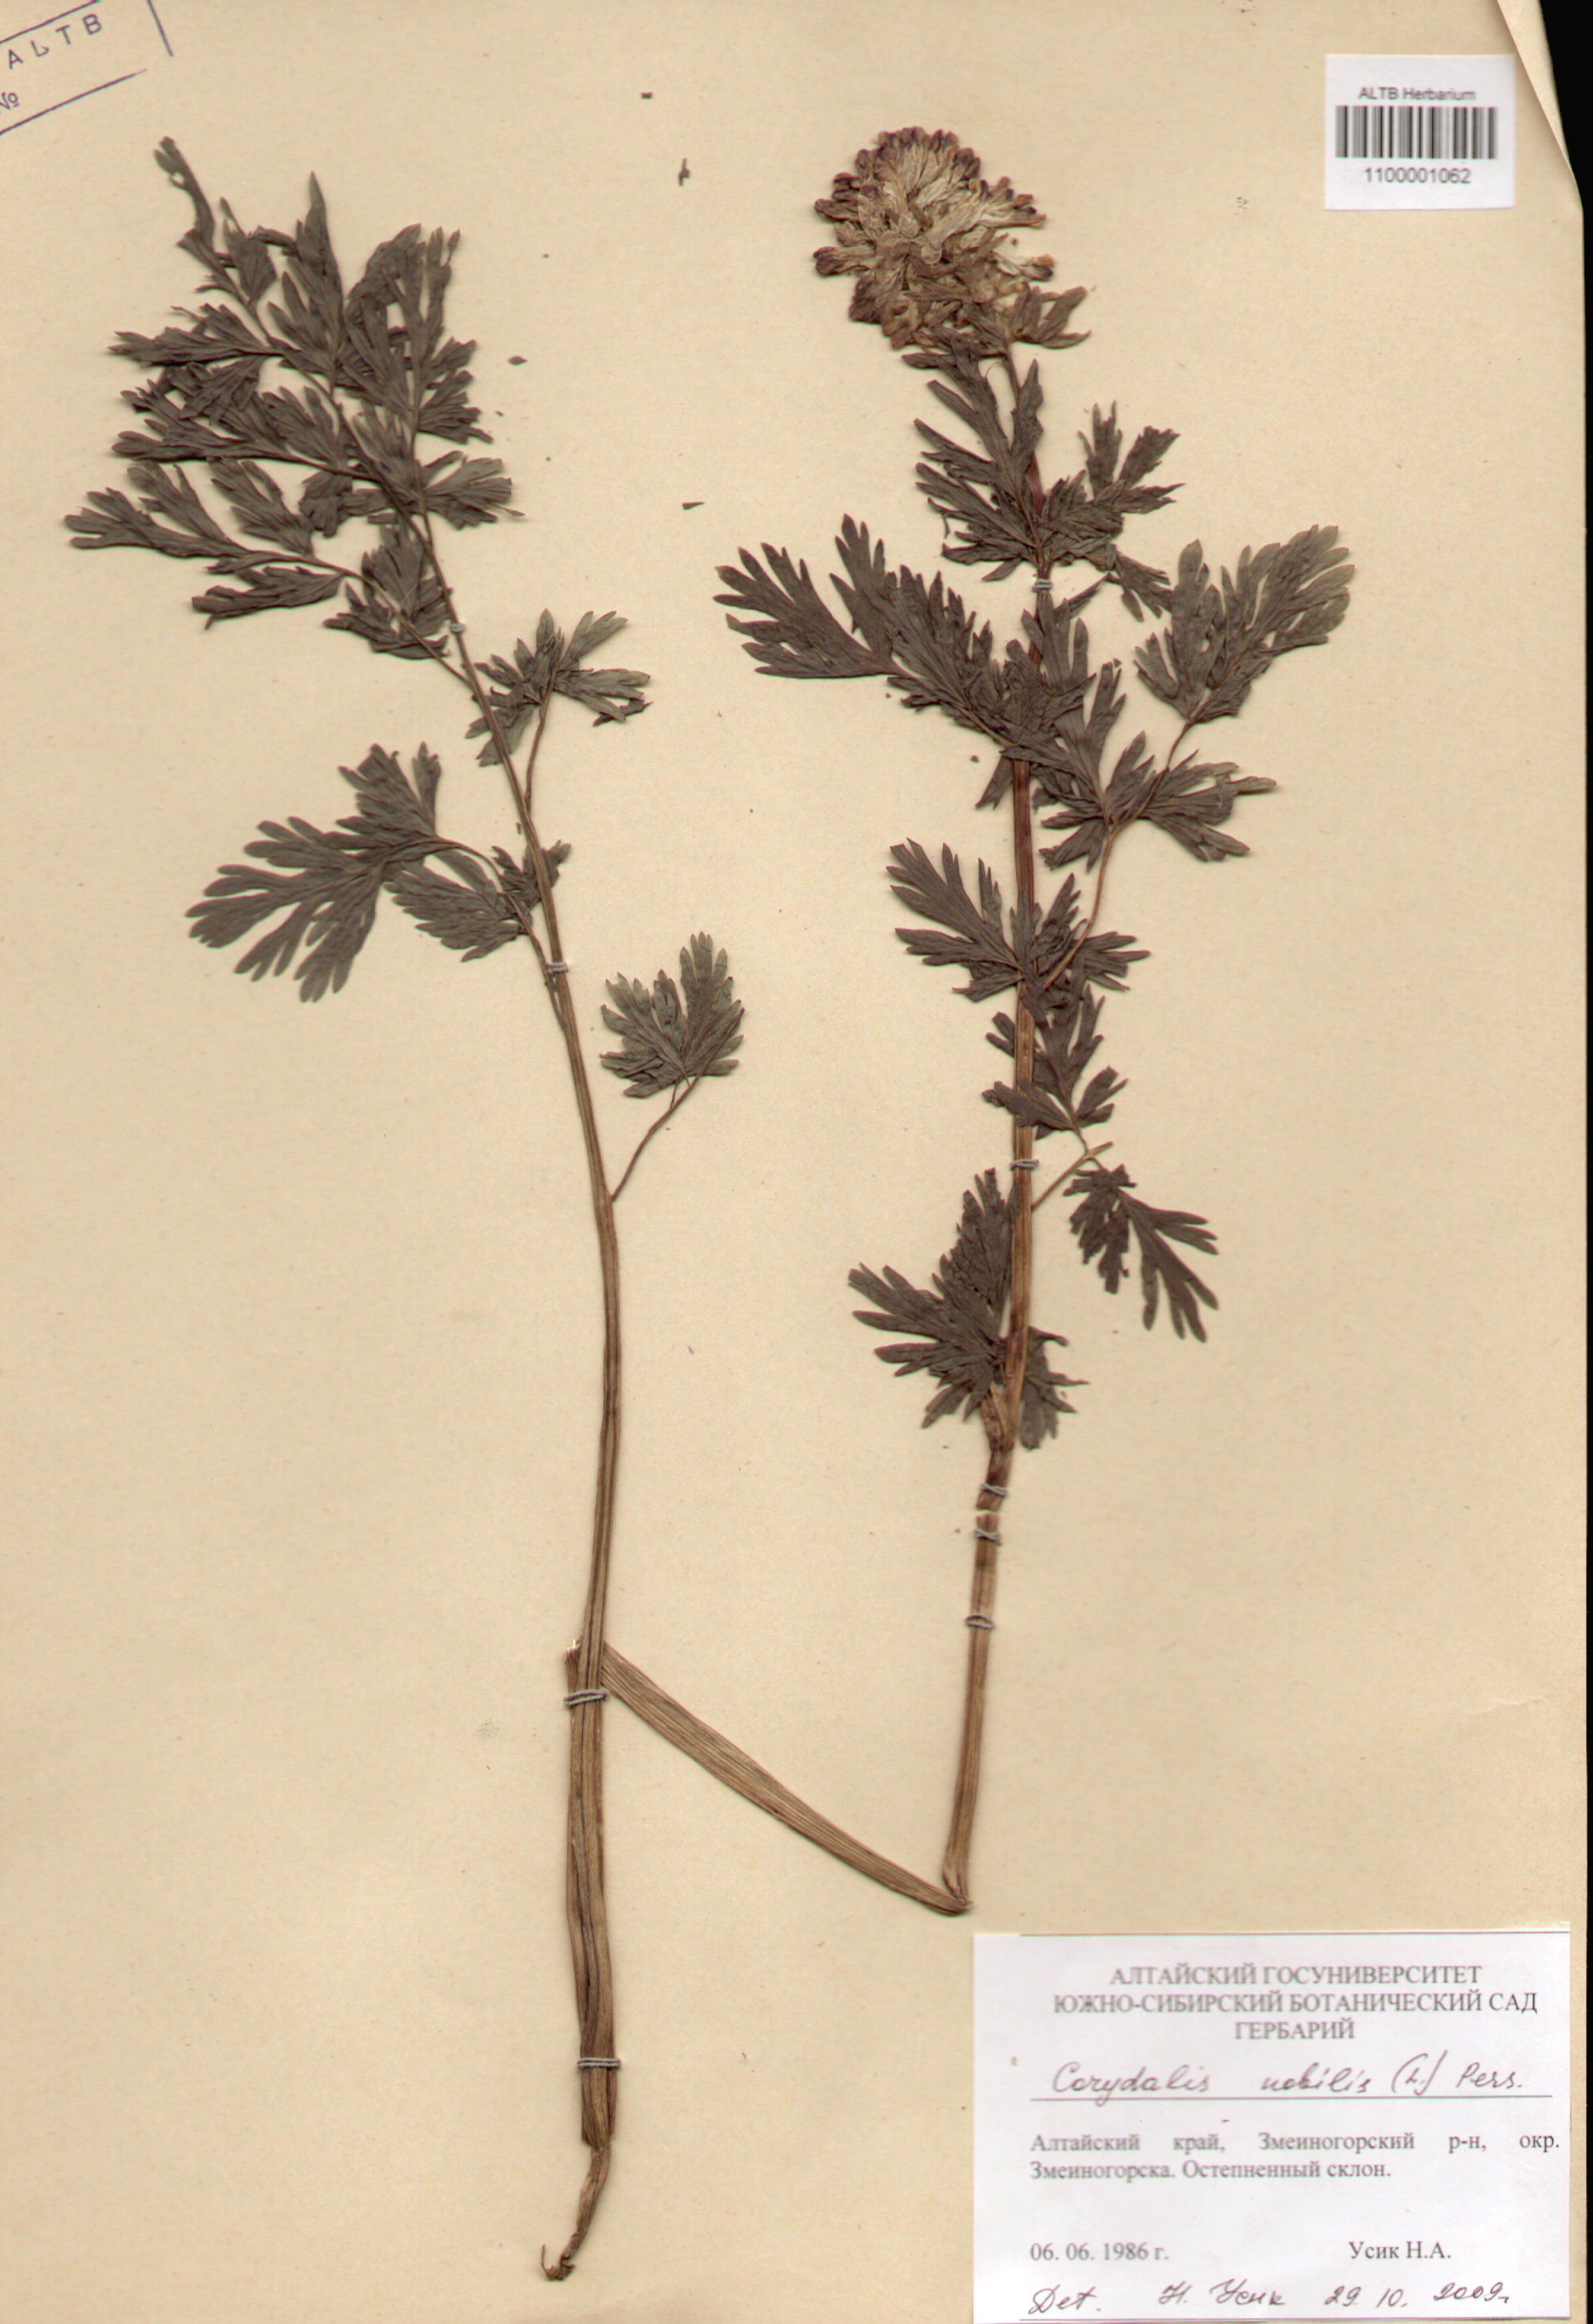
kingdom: Plantae
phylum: Tracheophyta
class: Magnoliopsida
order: Ranunculales
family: Papaveraceae
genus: Corydalis
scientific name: Corydalis nobilis
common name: Siberian corydalis
